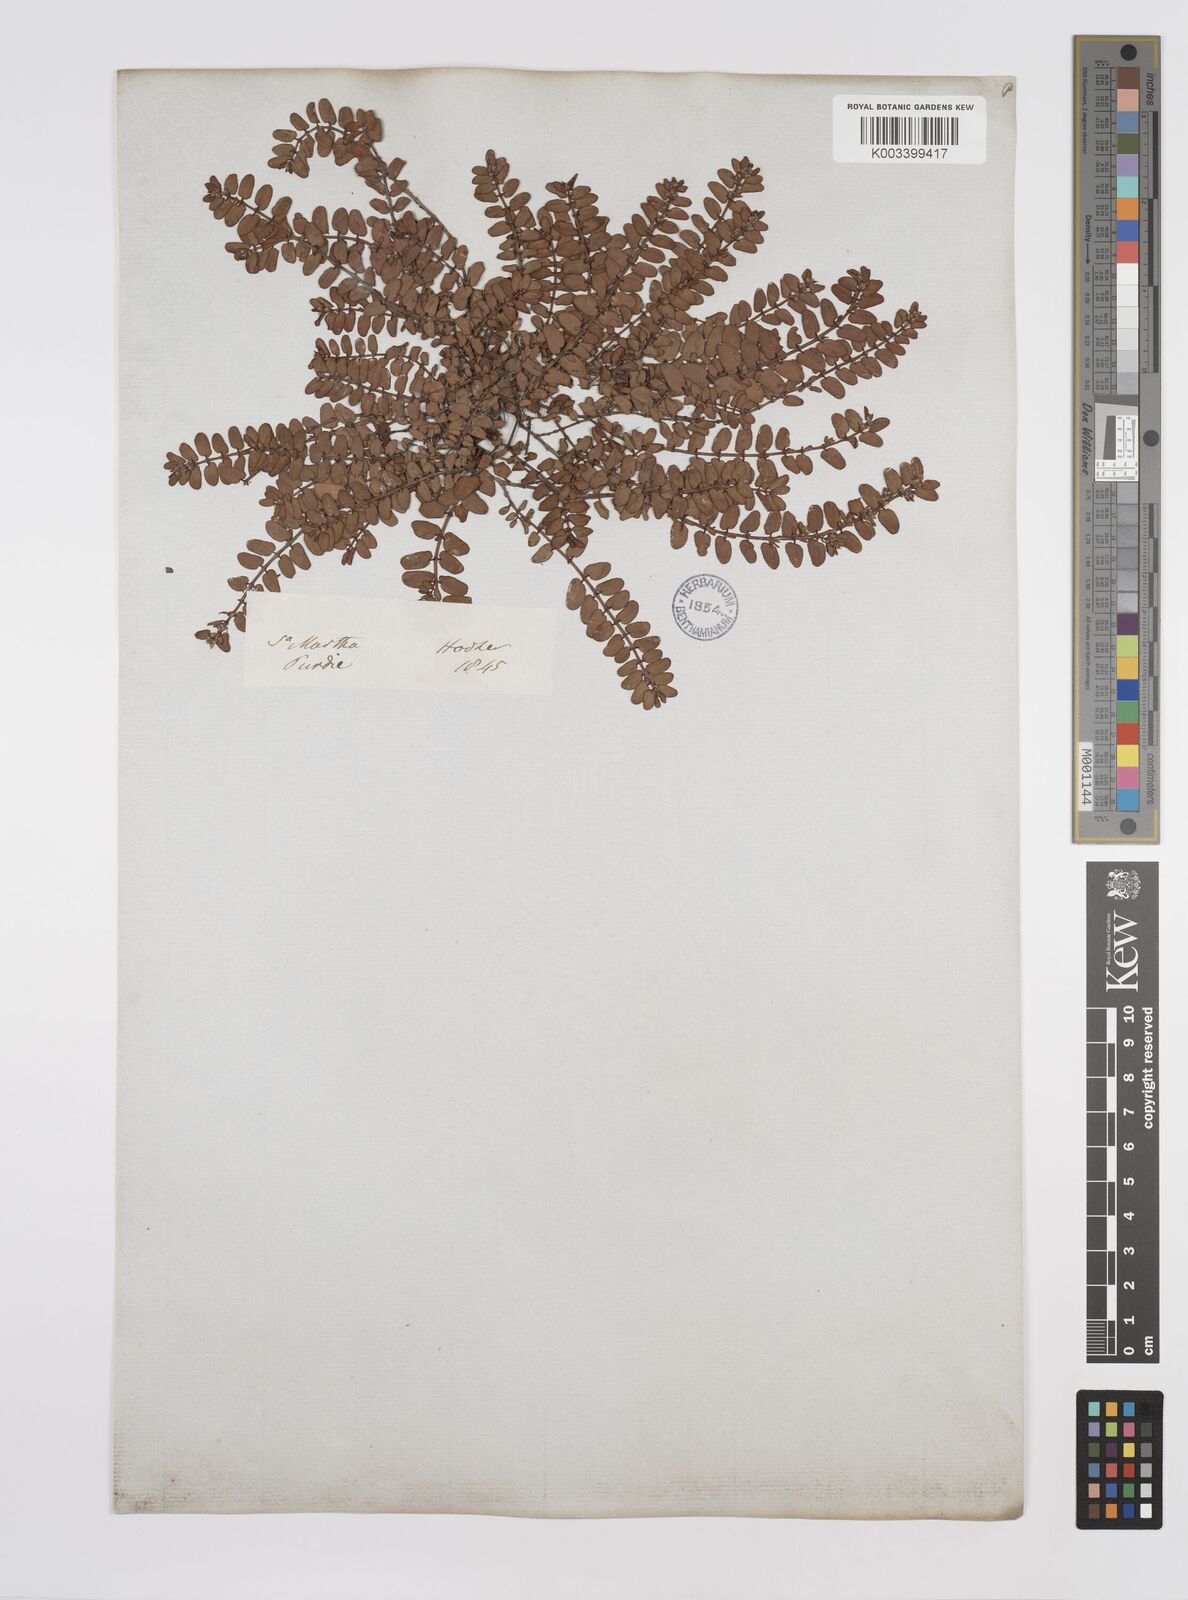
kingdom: Plantae
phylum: Tracheophyta
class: Magnoliopsida
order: Malpighiales
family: Euphorbiaceae
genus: Euphorbia
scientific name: Euphorbia
